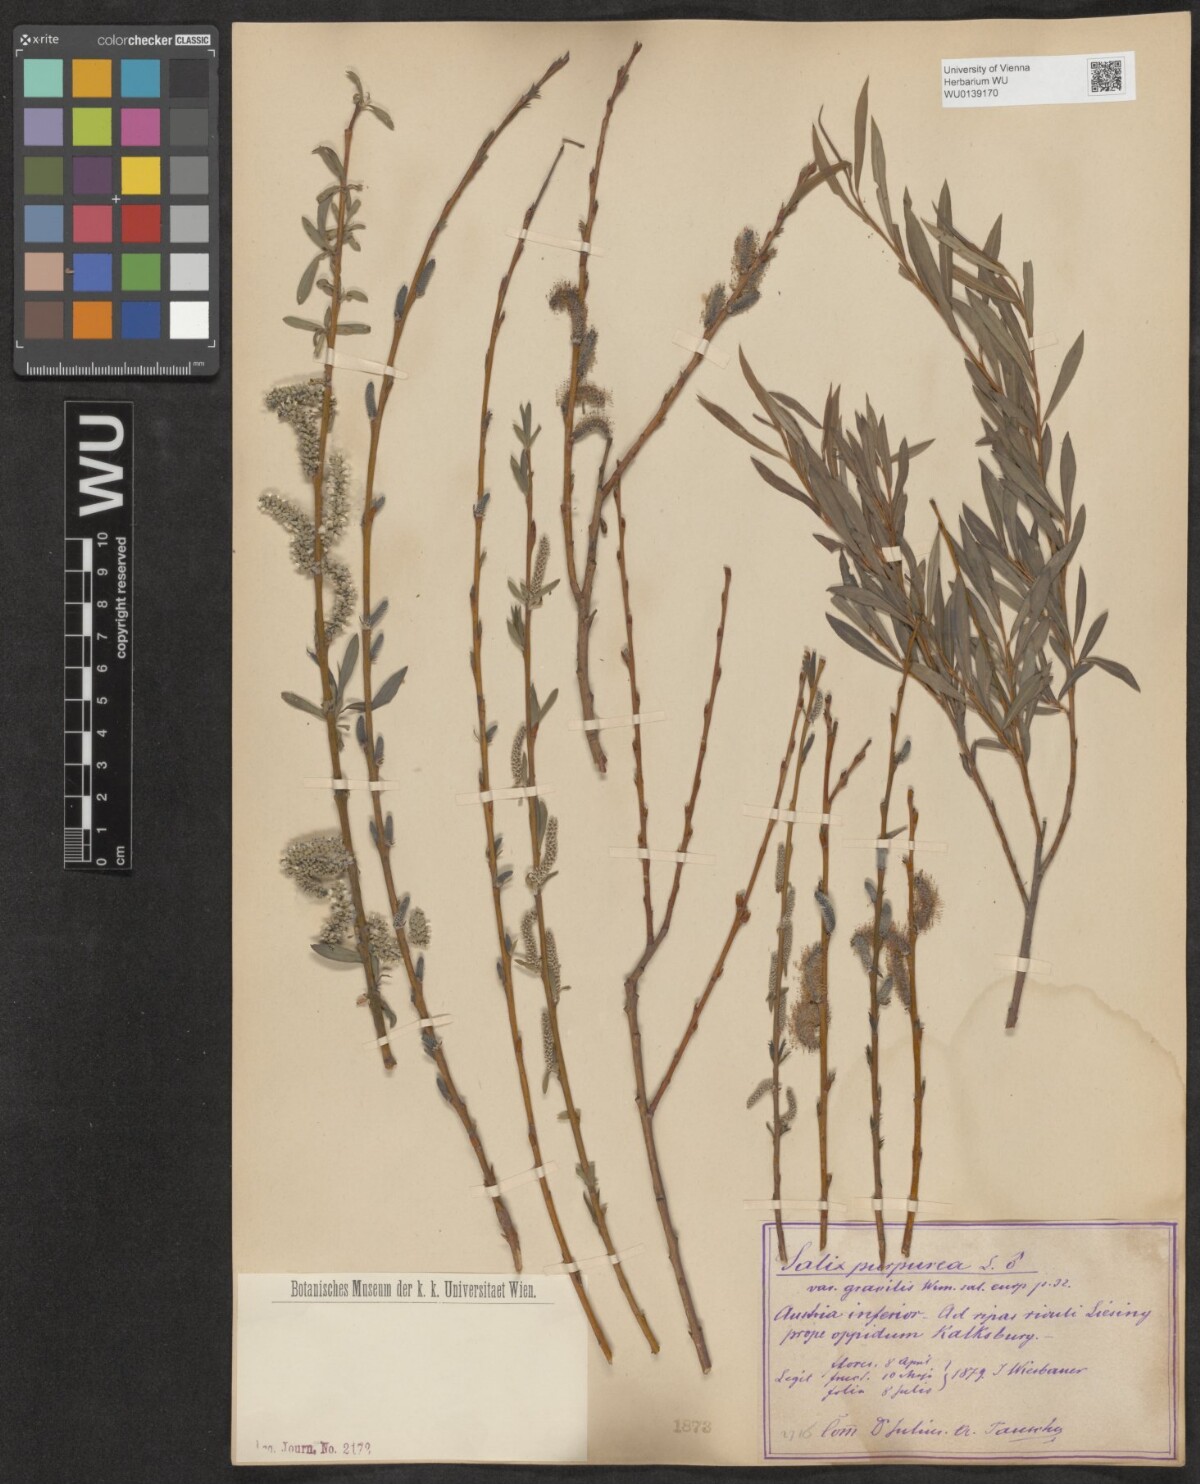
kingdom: Plantae
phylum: Tracheophyta
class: Magnoliopsida
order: Malpighiales
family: Salicaceae
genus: Salix
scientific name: Salix purpurea
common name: Purple willow
